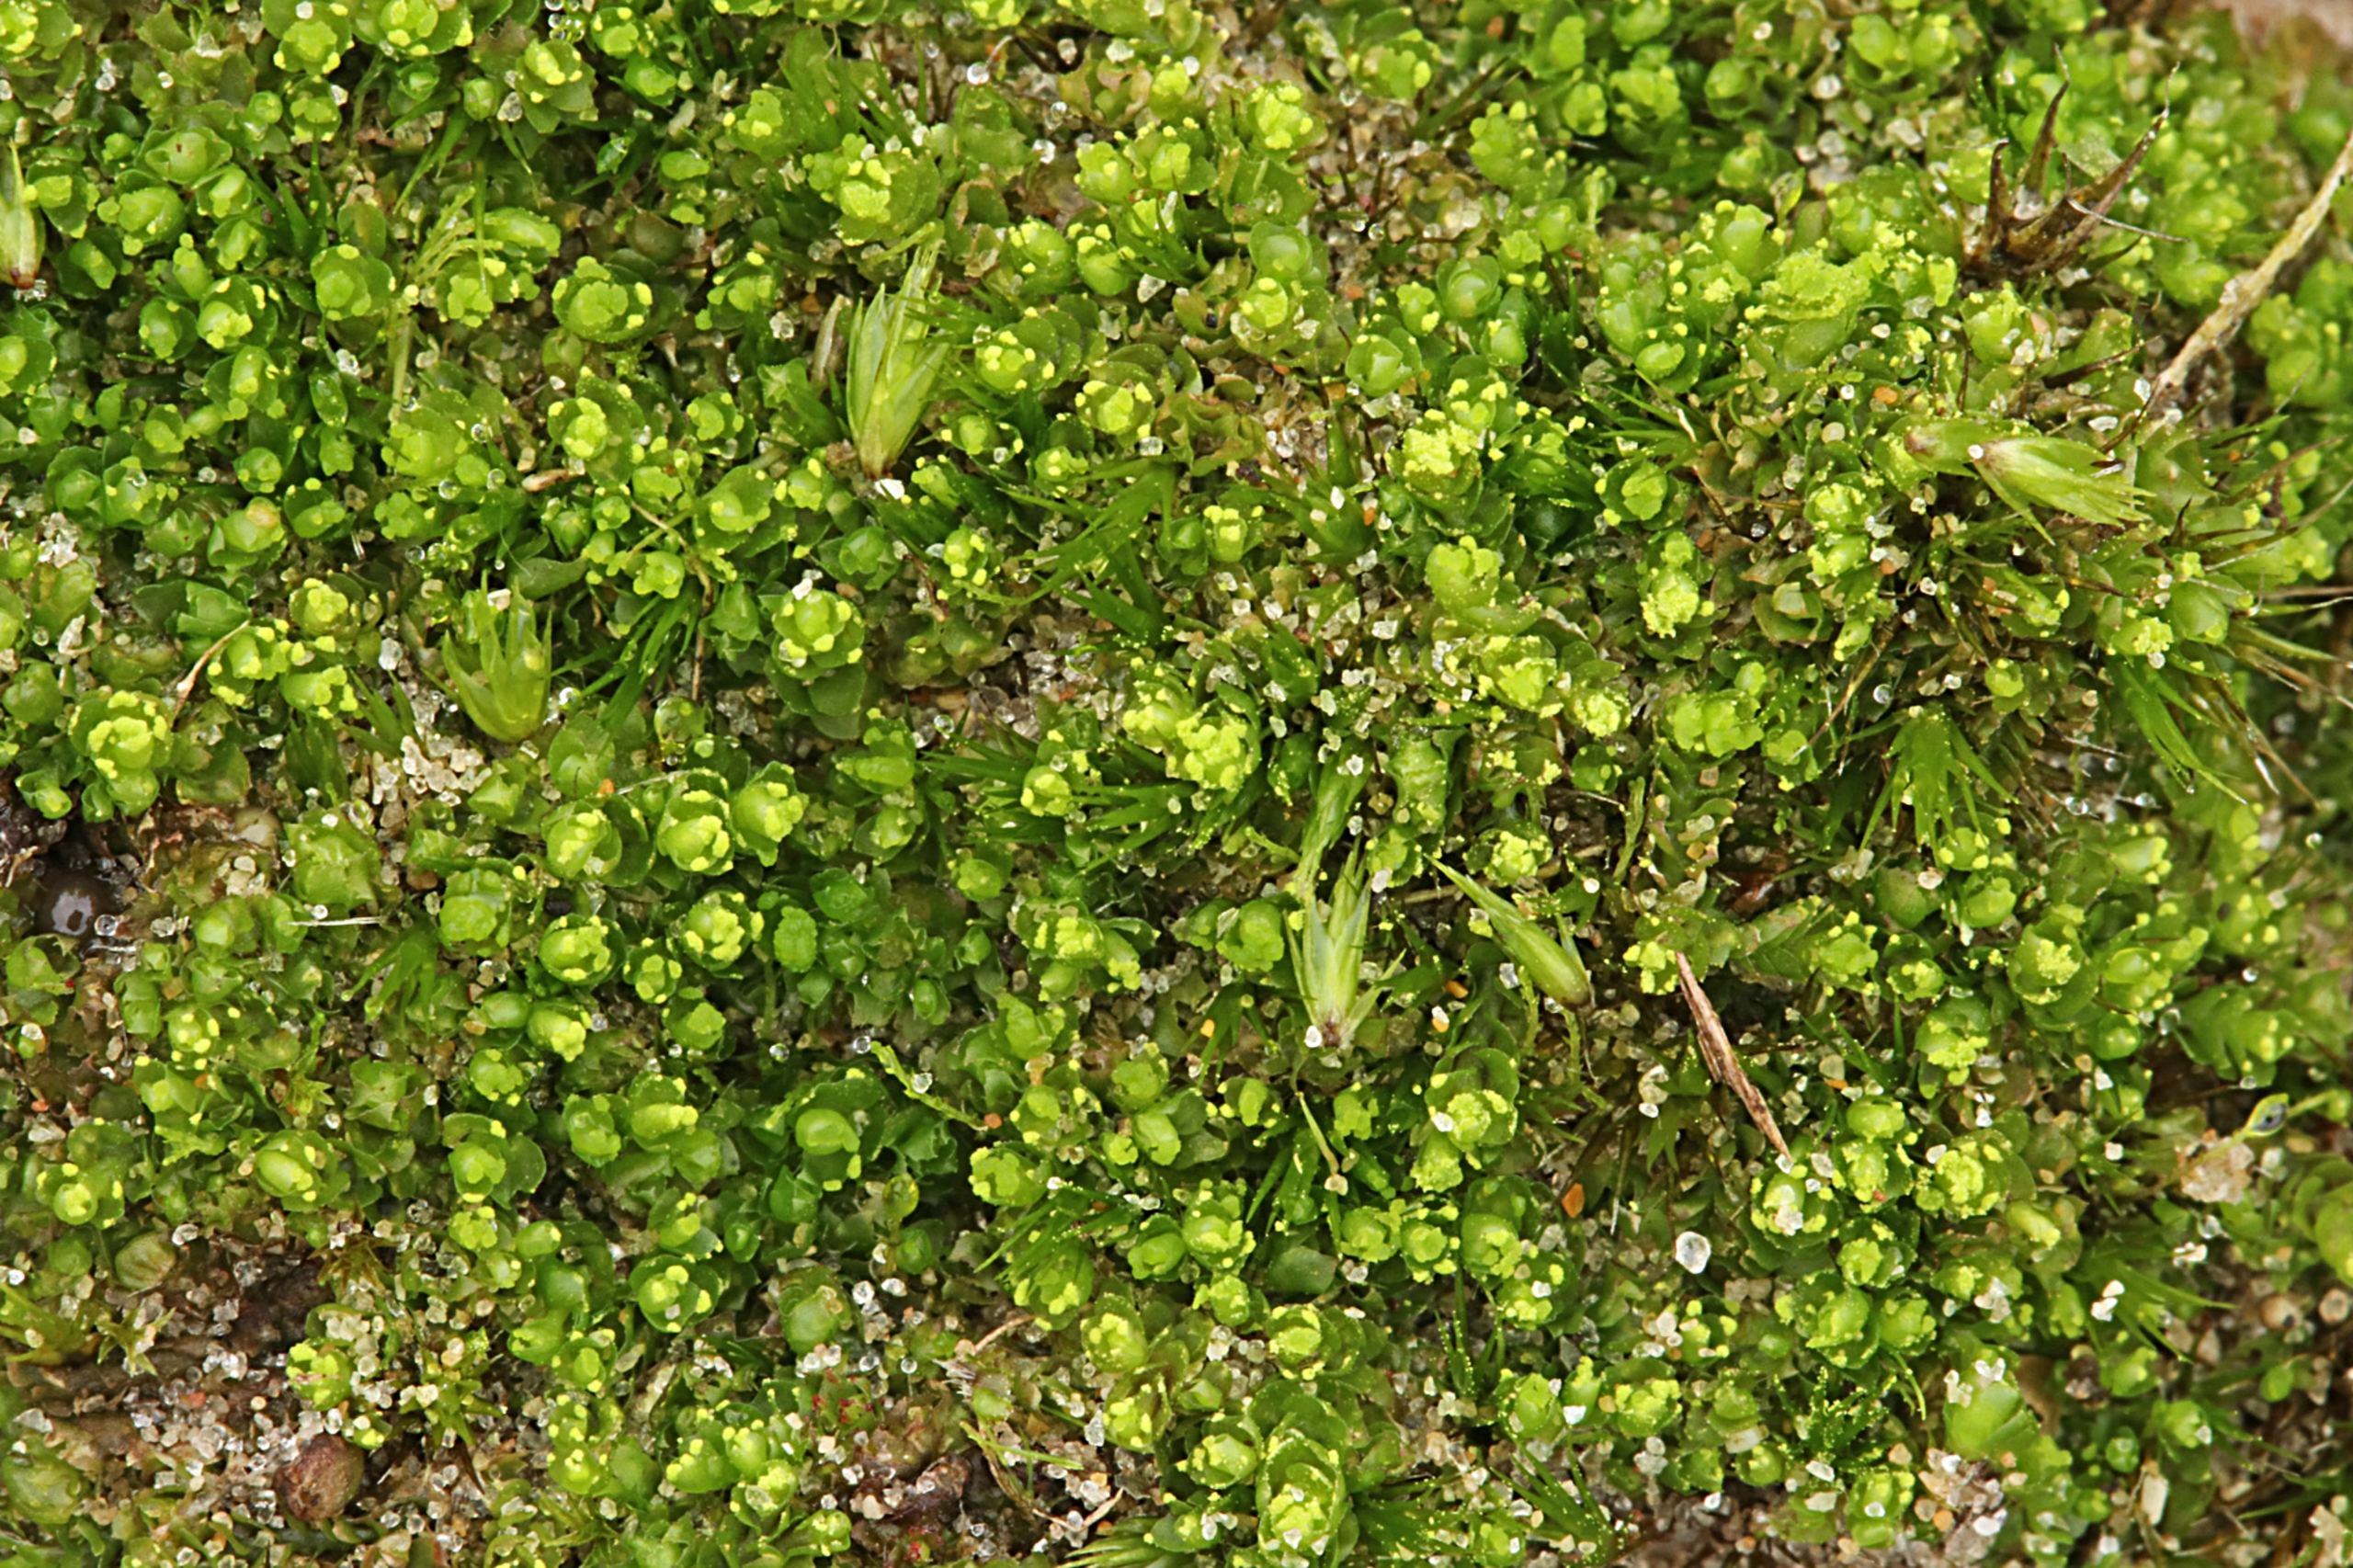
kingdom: Plantae
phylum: Marchantiophyta
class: Jungermanniopsida
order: Jungermanniales
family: Lophoziaceae
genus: Lophozia
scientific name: Lophozia wenzelii
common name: Skeblad-foldbæger
